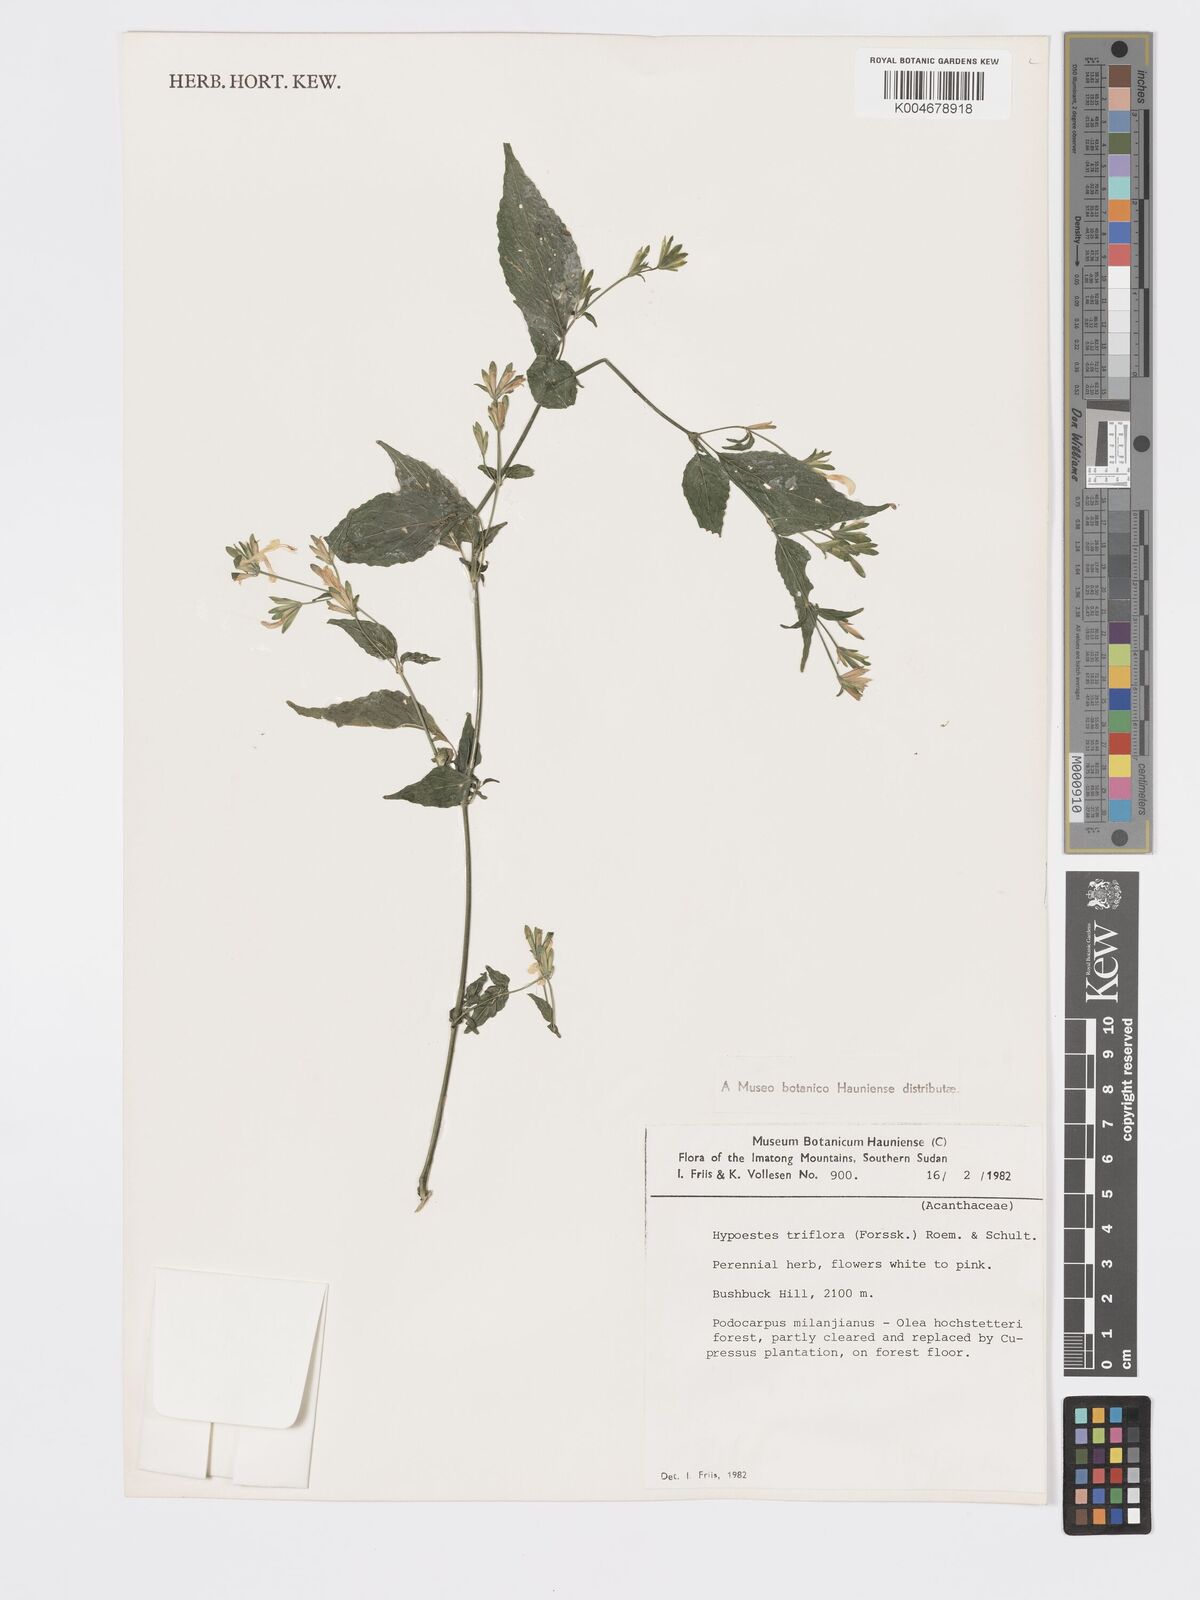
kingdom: Plantae
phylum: Tracheophyta
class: Magnoliopsida
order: Lamiales
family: Acanthaceae
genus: Hypoestes
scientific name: Hypoestes triflora
